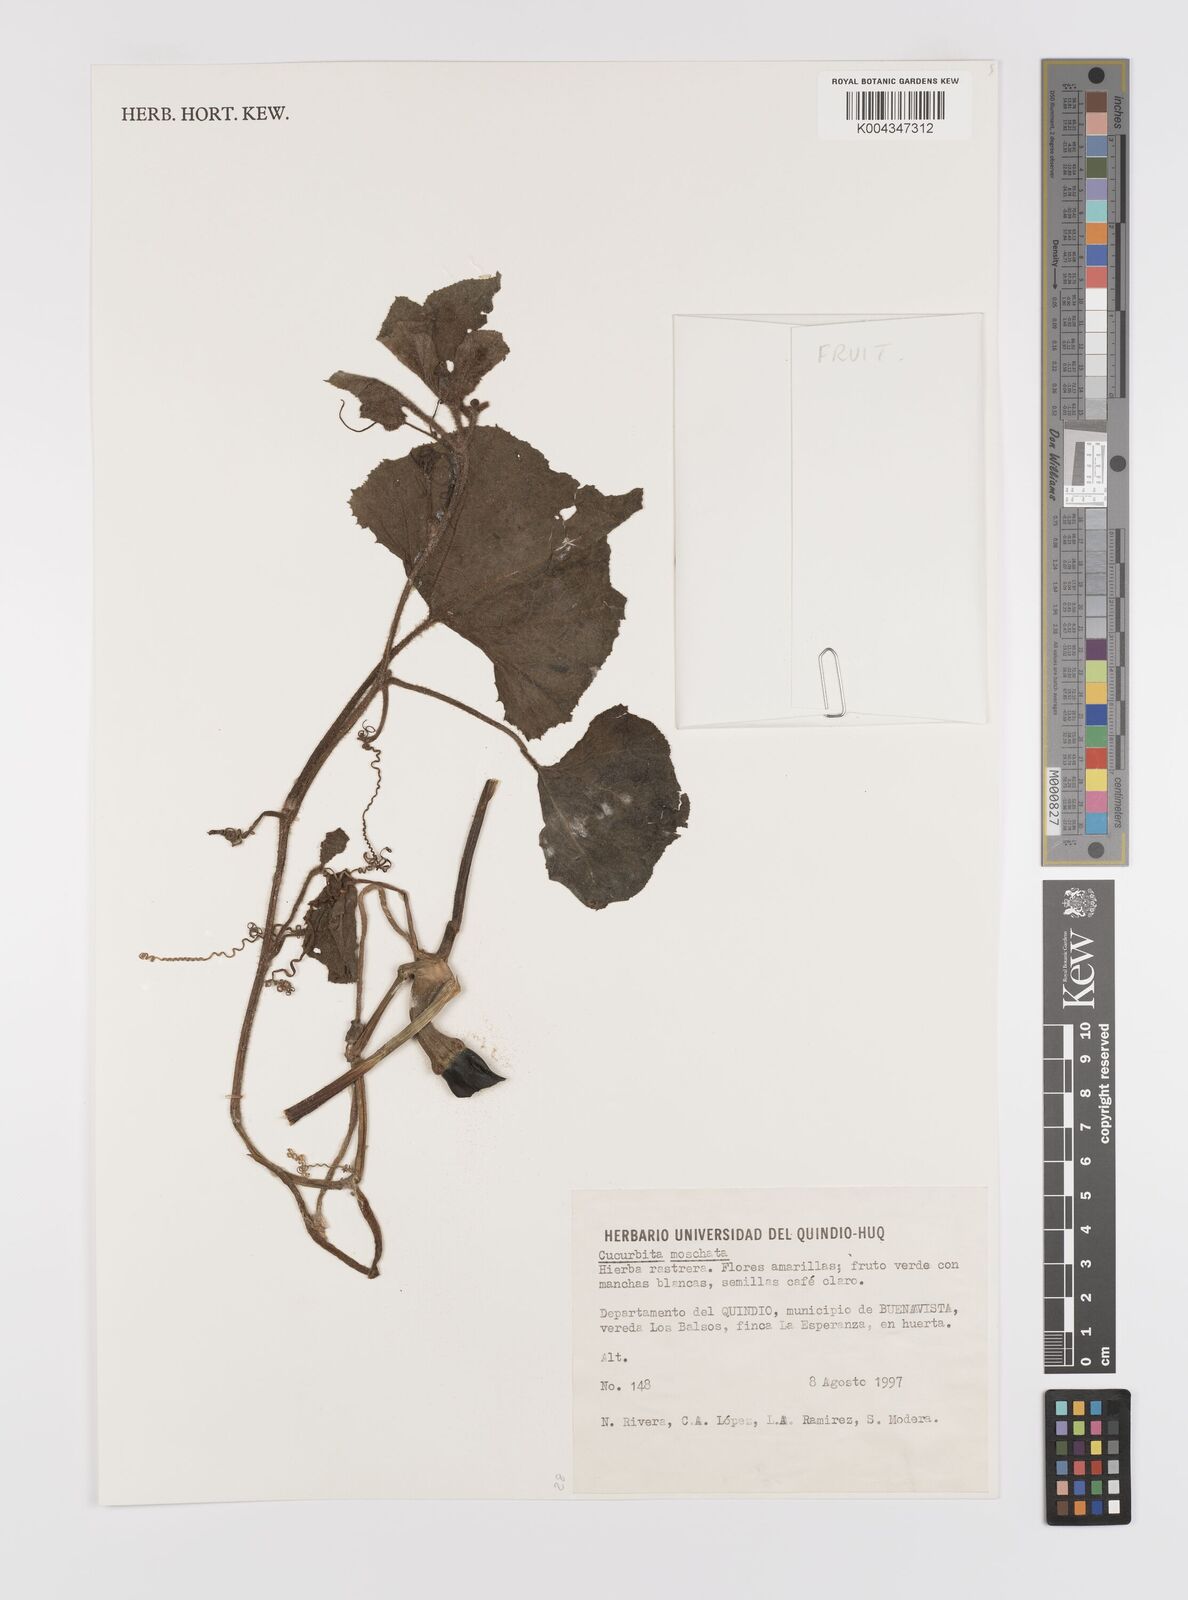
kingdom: Plantae
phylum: Tracheophyta
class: Magnoliopsida
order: Cucurbitales
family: Cucurbitaceae
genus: Cucurbita
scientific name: Cucurbita moschata
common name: Squash / pumpkin
